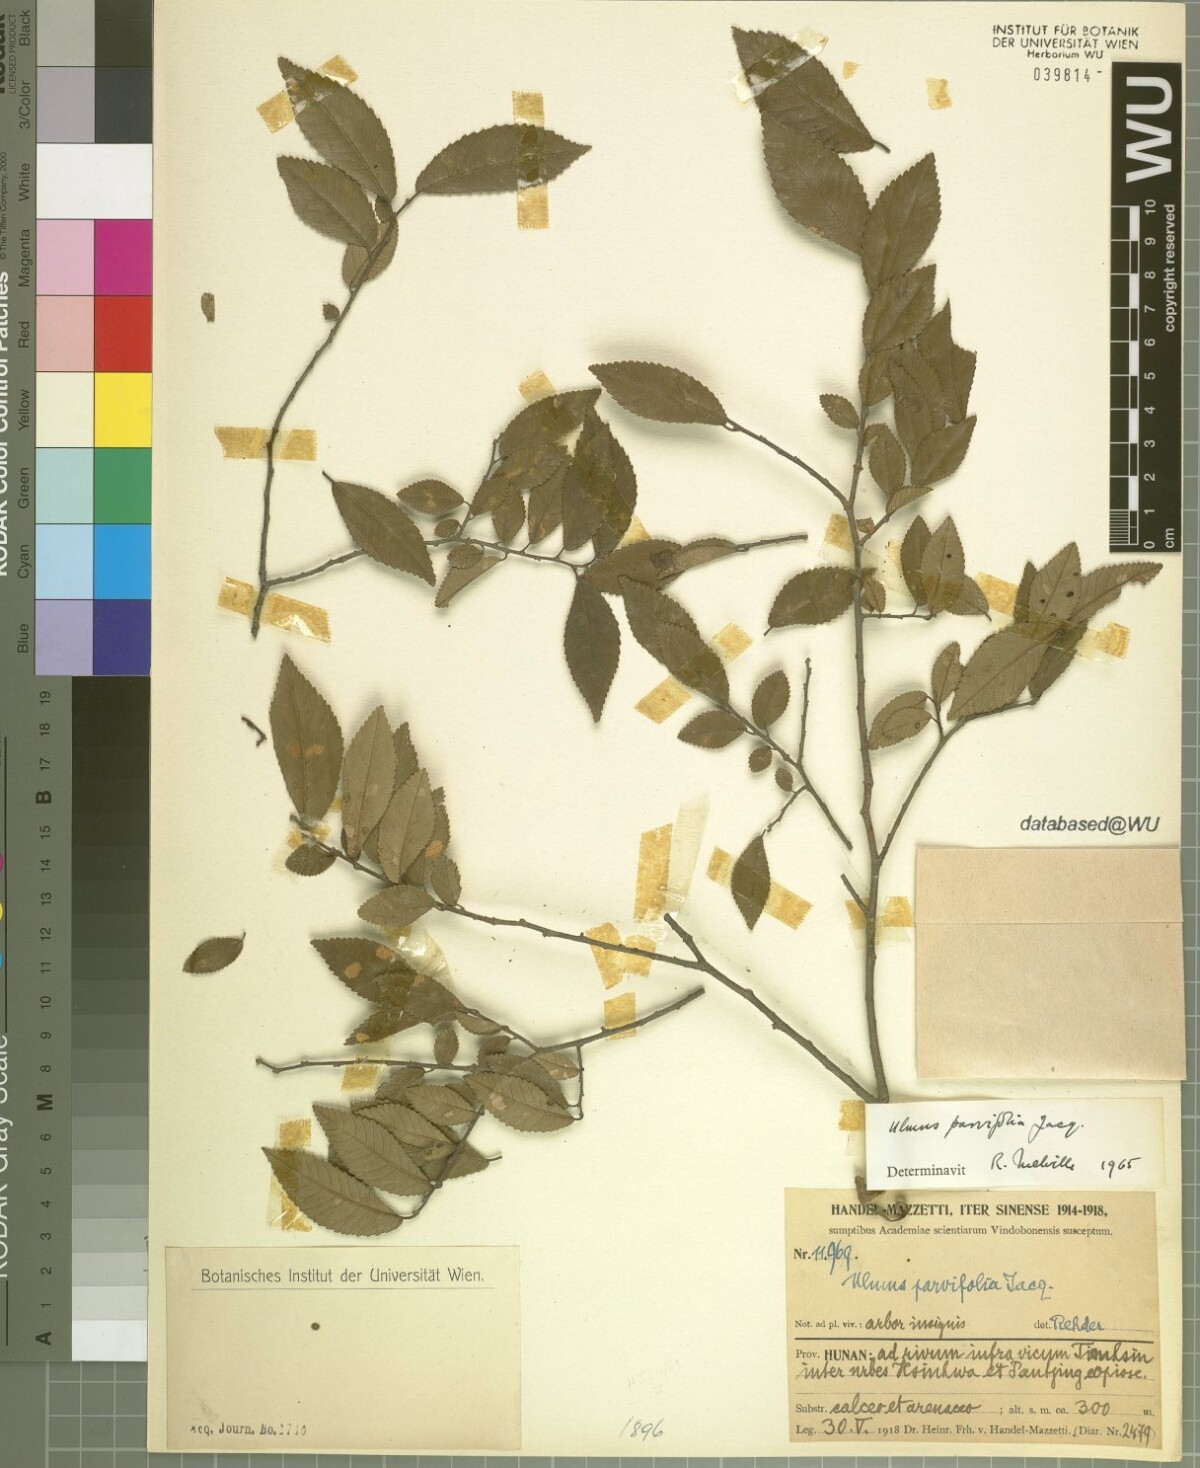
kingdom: Plantae
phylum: Tracheophyta
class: Magnoliopsida
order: Rosales
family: Ulmaceae
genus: Ulmus
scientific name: Ulmus parvifolia
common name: Chinese elm
